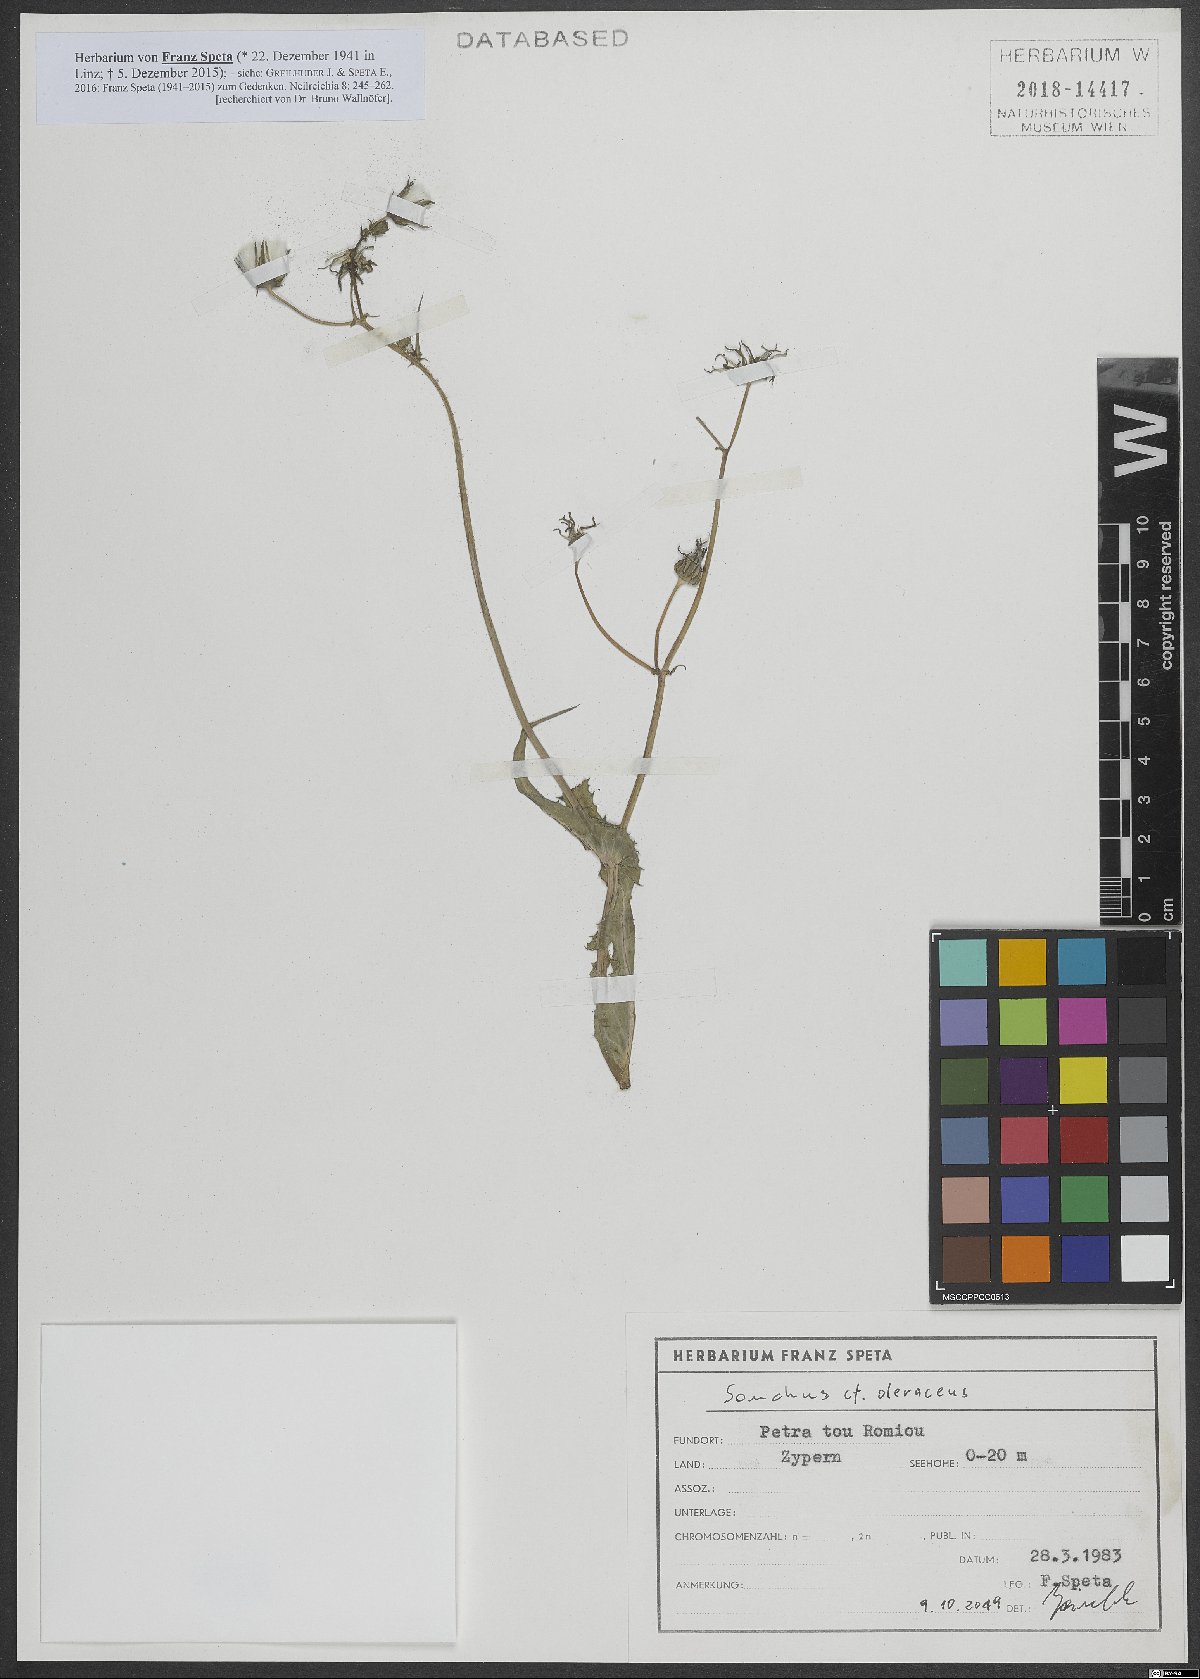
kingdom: Plantae
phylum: Tracheophyta
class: Magnoliopsida
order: Asterales
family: Asteraceae
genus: Sonchus
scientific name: Sonchus oleraceus
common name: Common sowthistle
